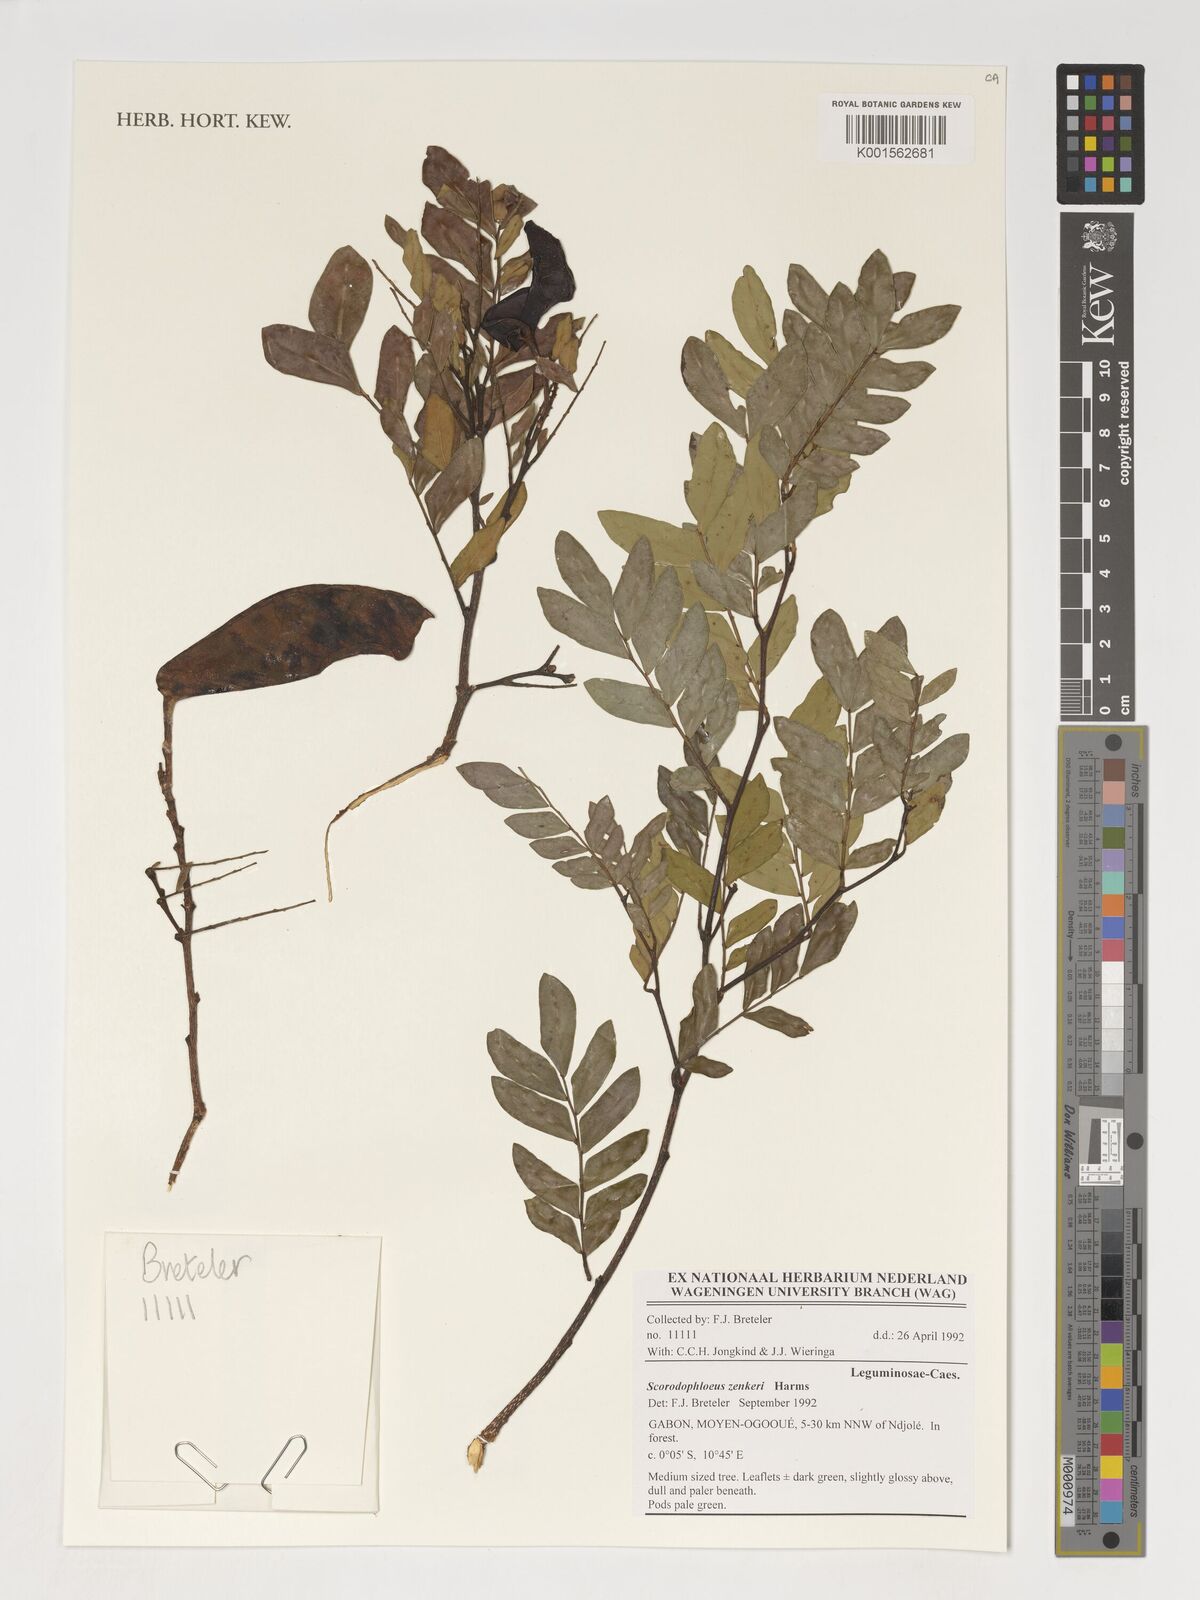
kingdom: Plantae
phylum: Tracheophyta
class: Magnoliopsida
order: Fabales
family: Fabaceae
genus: Scorodophloeus
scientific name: Scorodophloeus
